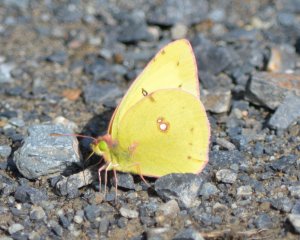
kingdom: Animalia
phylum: Arthropoda
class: Insecta
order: Lepidoptera
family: Pieridae
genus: Colias
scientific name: Colias philodice
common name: Clouded Sulphur
